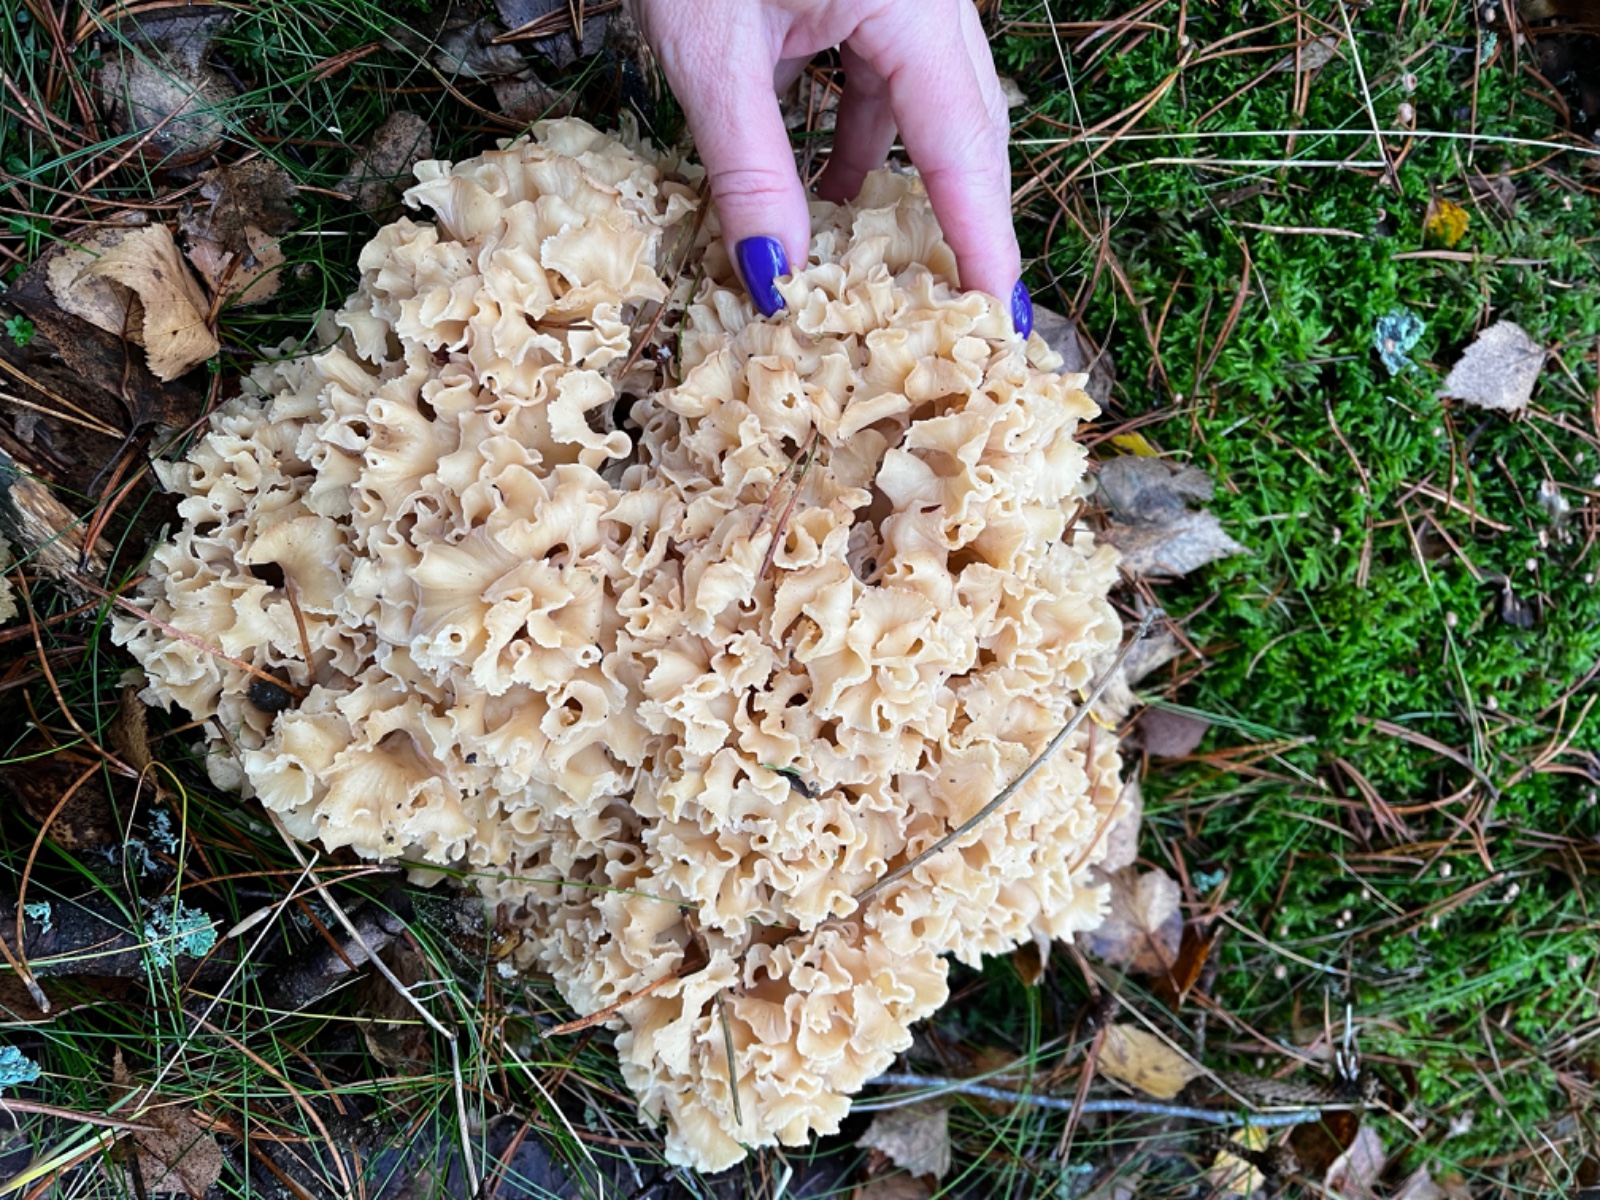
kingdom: Fungi
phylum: Basidiomycota
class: Agaricomycetes
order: Polyporales
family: Sparassidaceae
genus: Sparassis
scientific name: Sparassis crispa
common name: kruset blomkålssvamp
